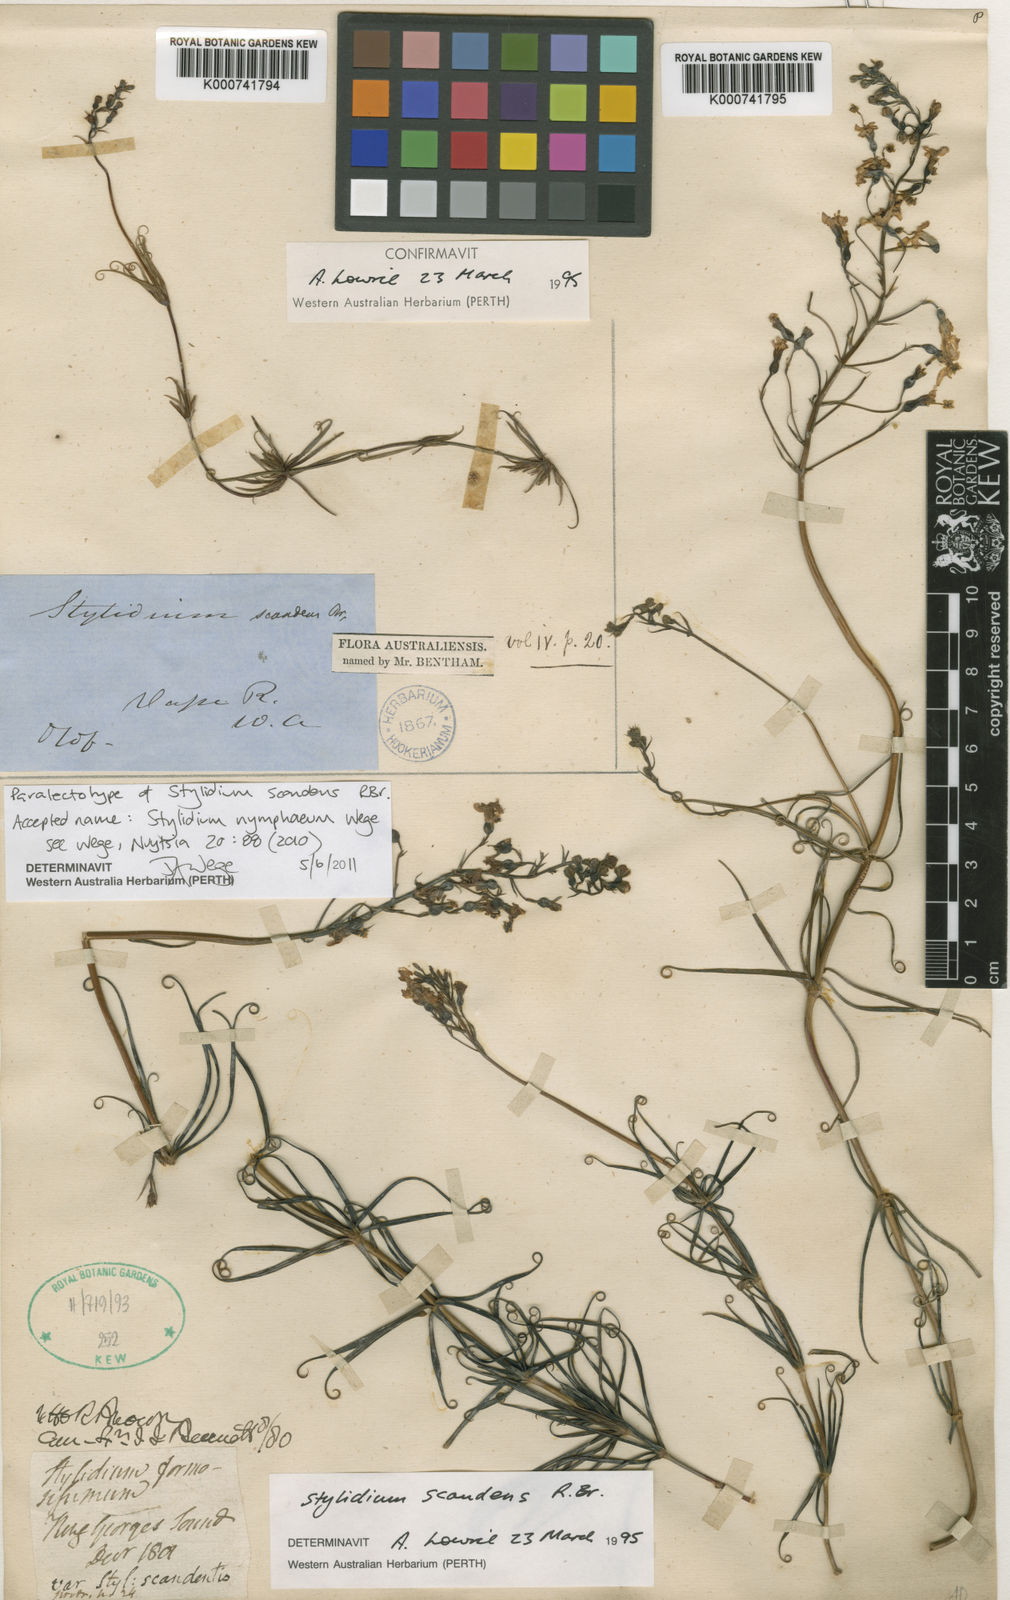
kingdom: Plantae
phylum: Tracheophyta
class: Magnoliopsida
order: Asterales
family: Stylidiaceae
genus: Stylidium
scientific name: Stylidium scandens
